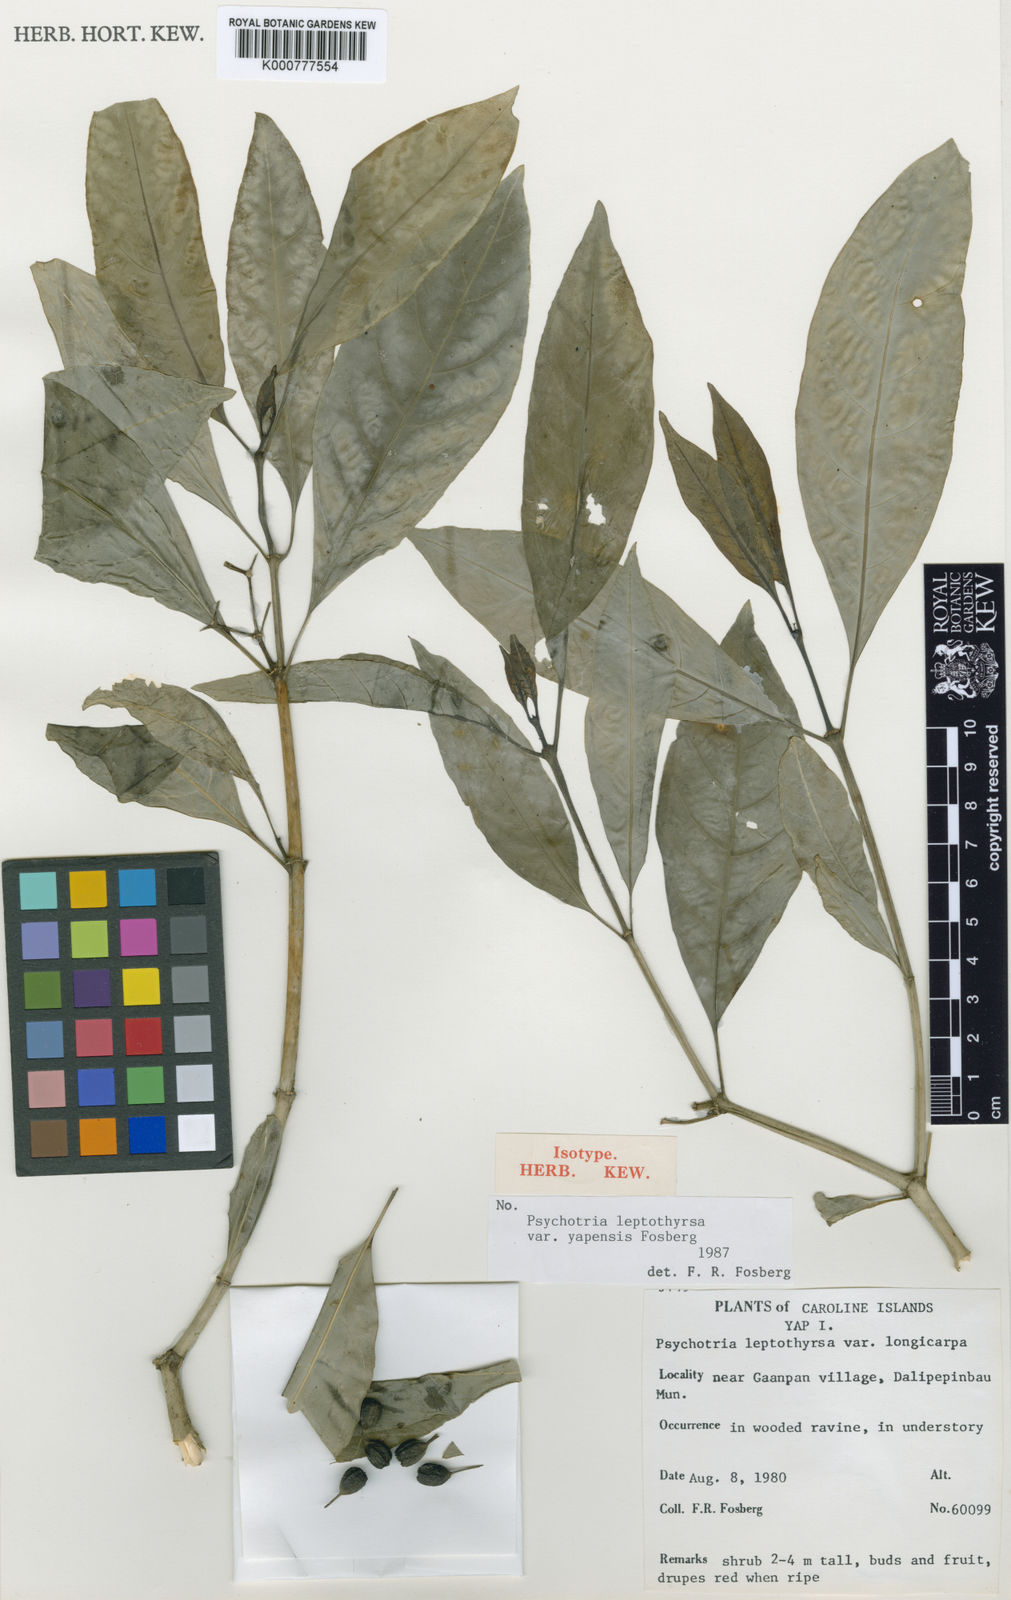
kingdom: Plantae
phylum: Tracheophyta
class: Magnoliopsida
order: Gentianales
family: Rubiaceae
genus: Eumachia
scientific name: Eumachia leptothyrsa
